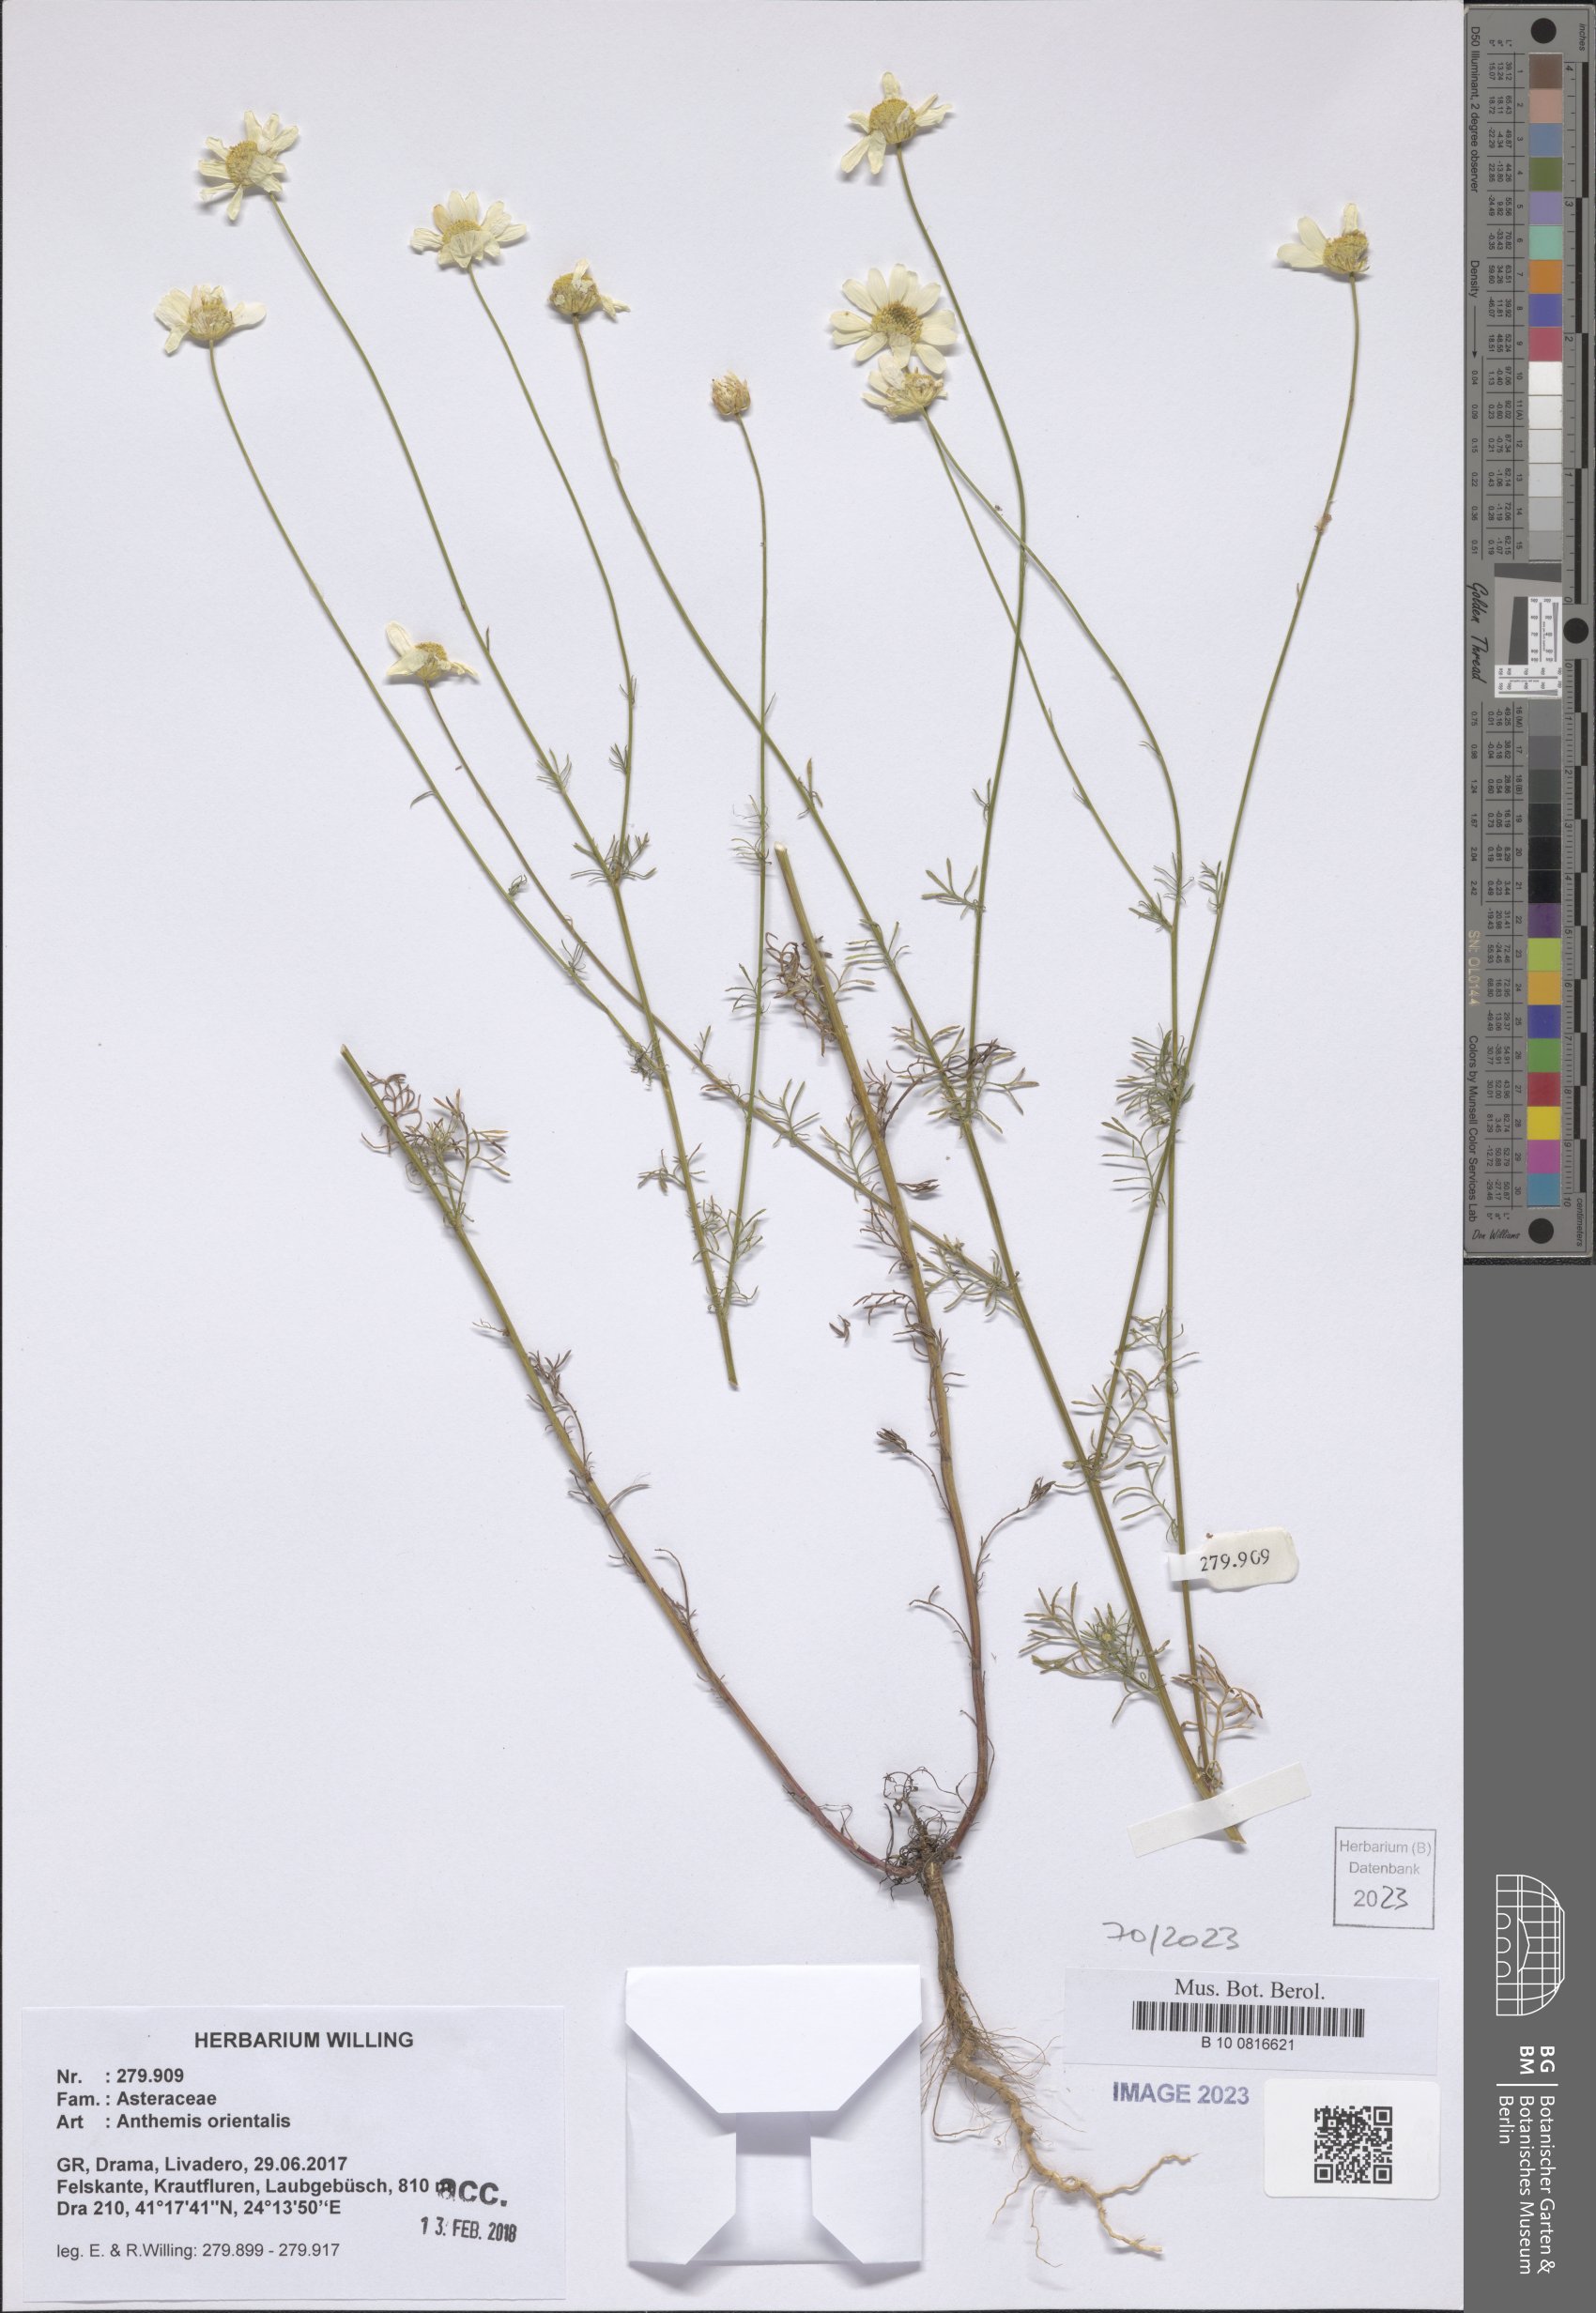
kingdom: Plantae
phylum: Tracheophyta
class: Magnoliopsida
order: Asterales
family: Asteraceae
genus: Anthemis
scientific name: Anthemis orientalis
